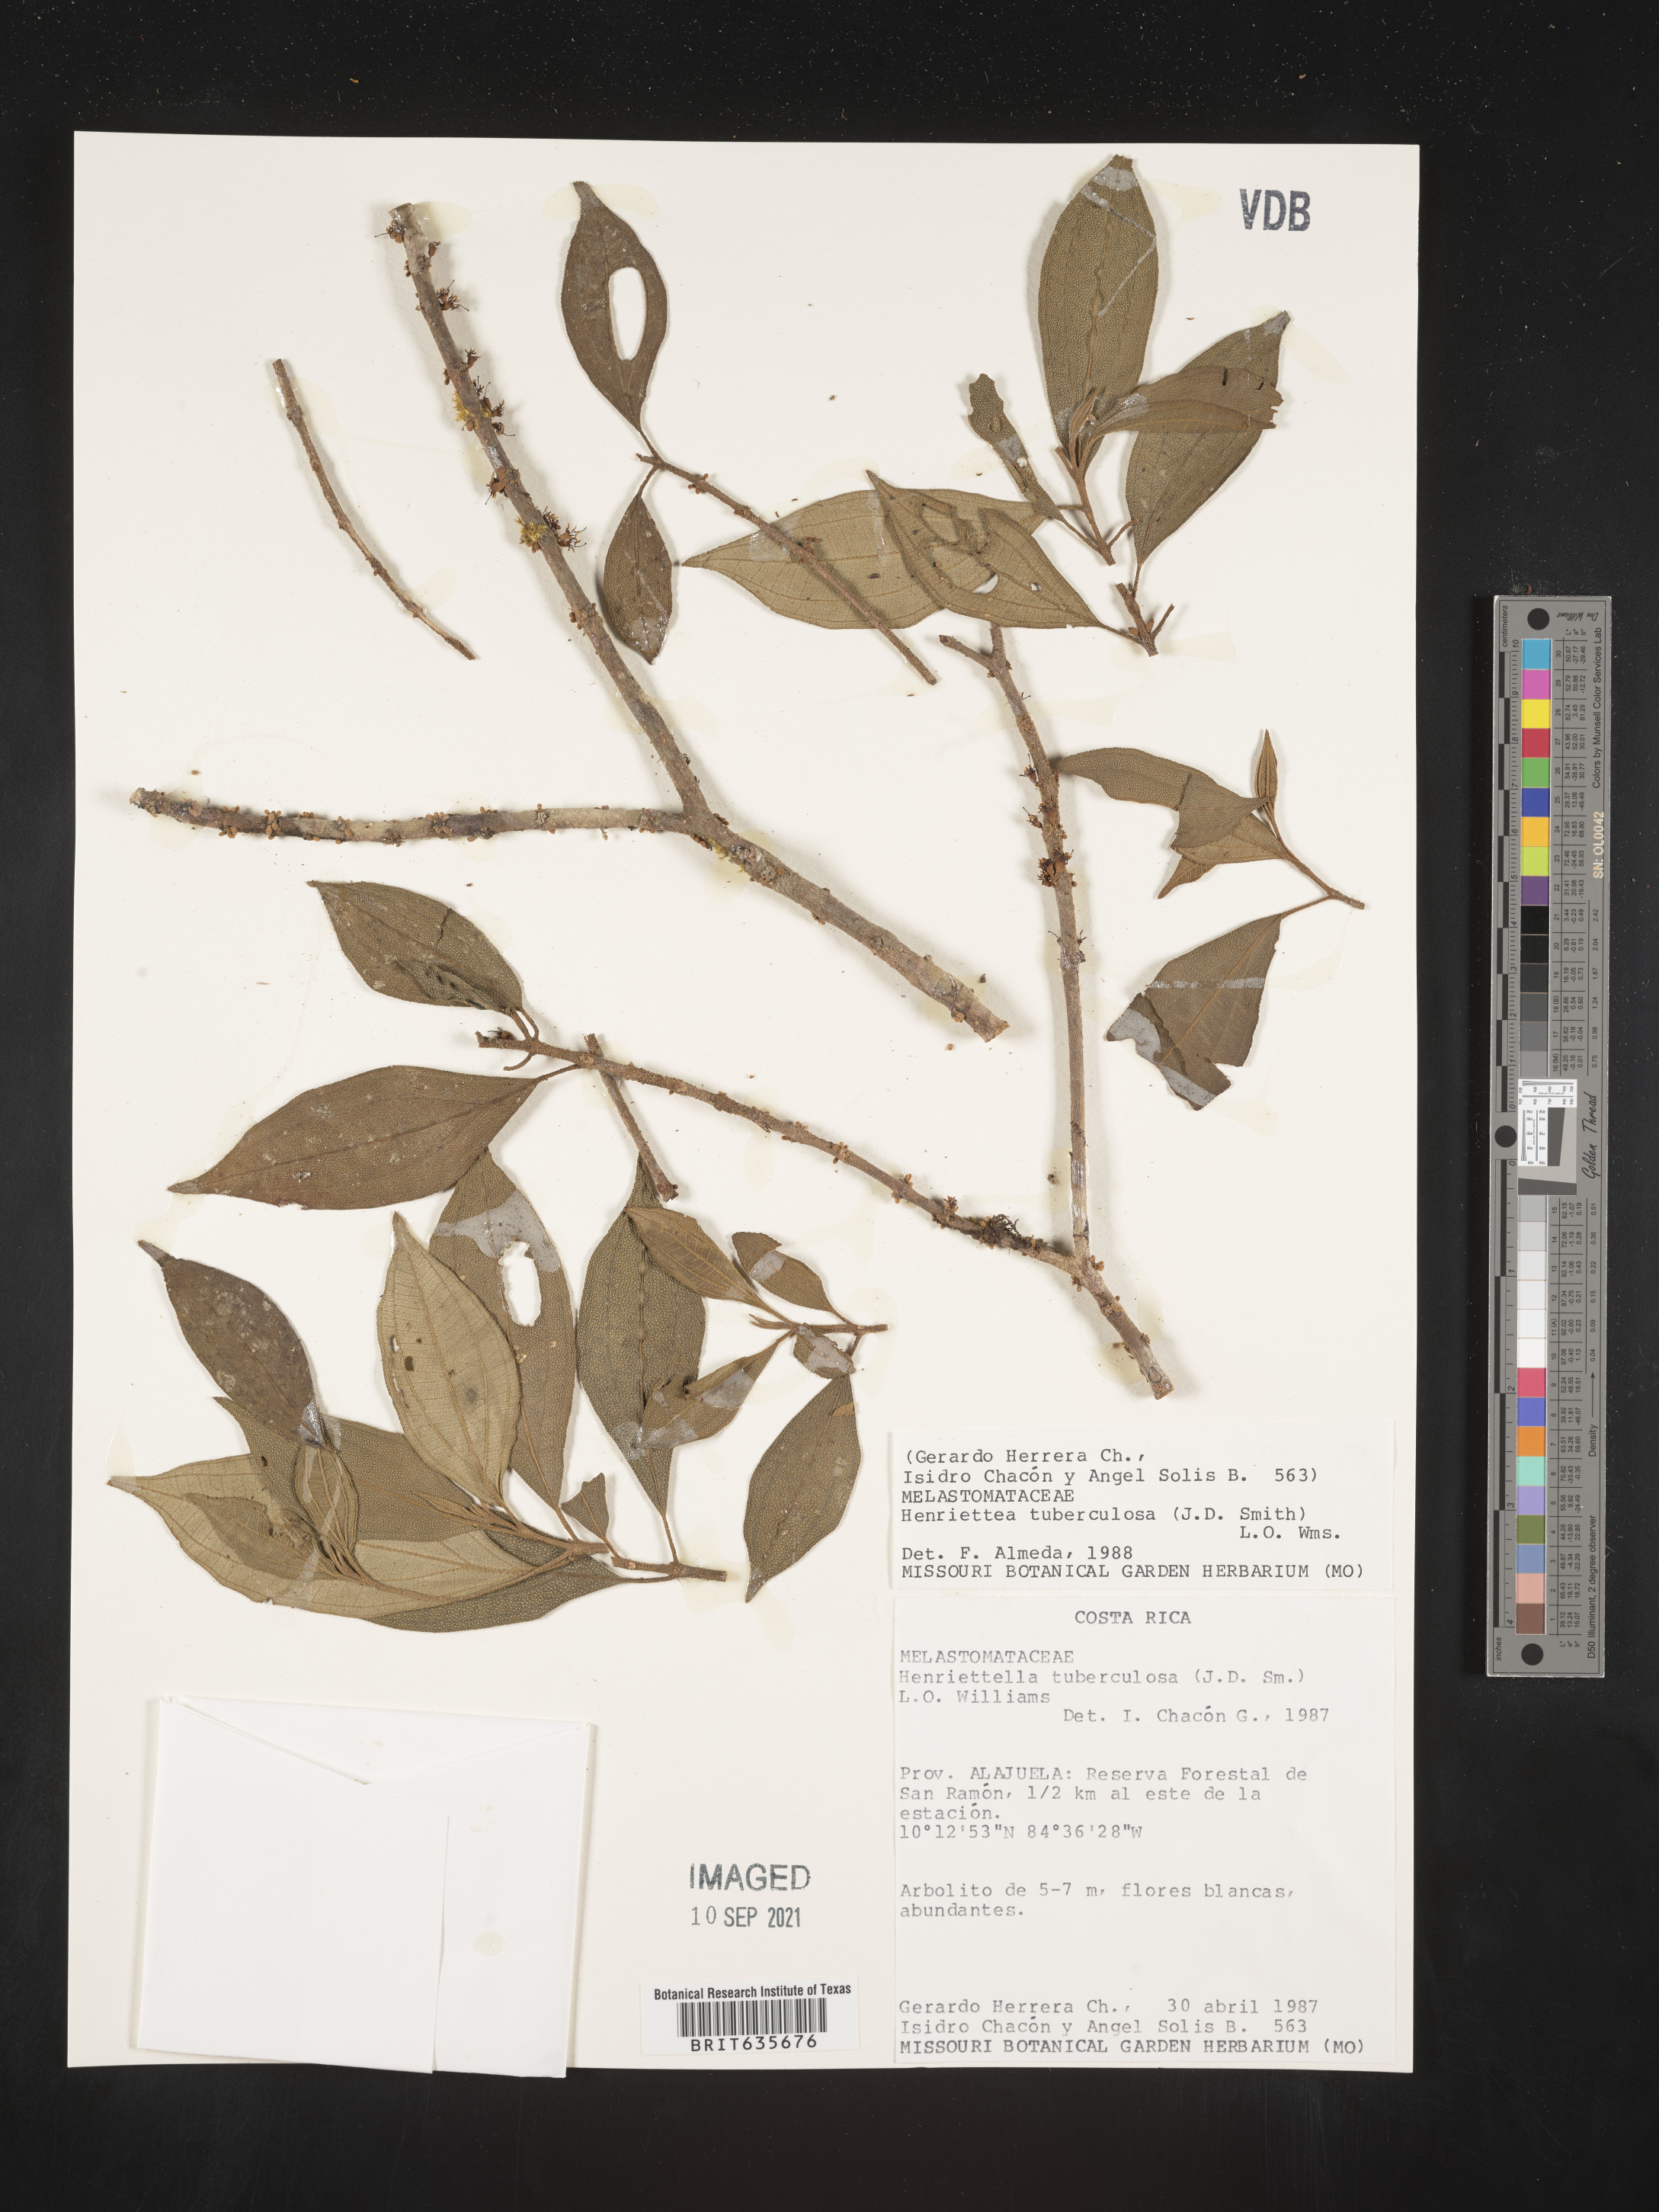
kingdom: Plantae
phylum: Tracheophyta
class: Magnoliopsida
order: Myrtales
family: Melastomataceae
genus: Henriettea
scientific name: Henriettea
